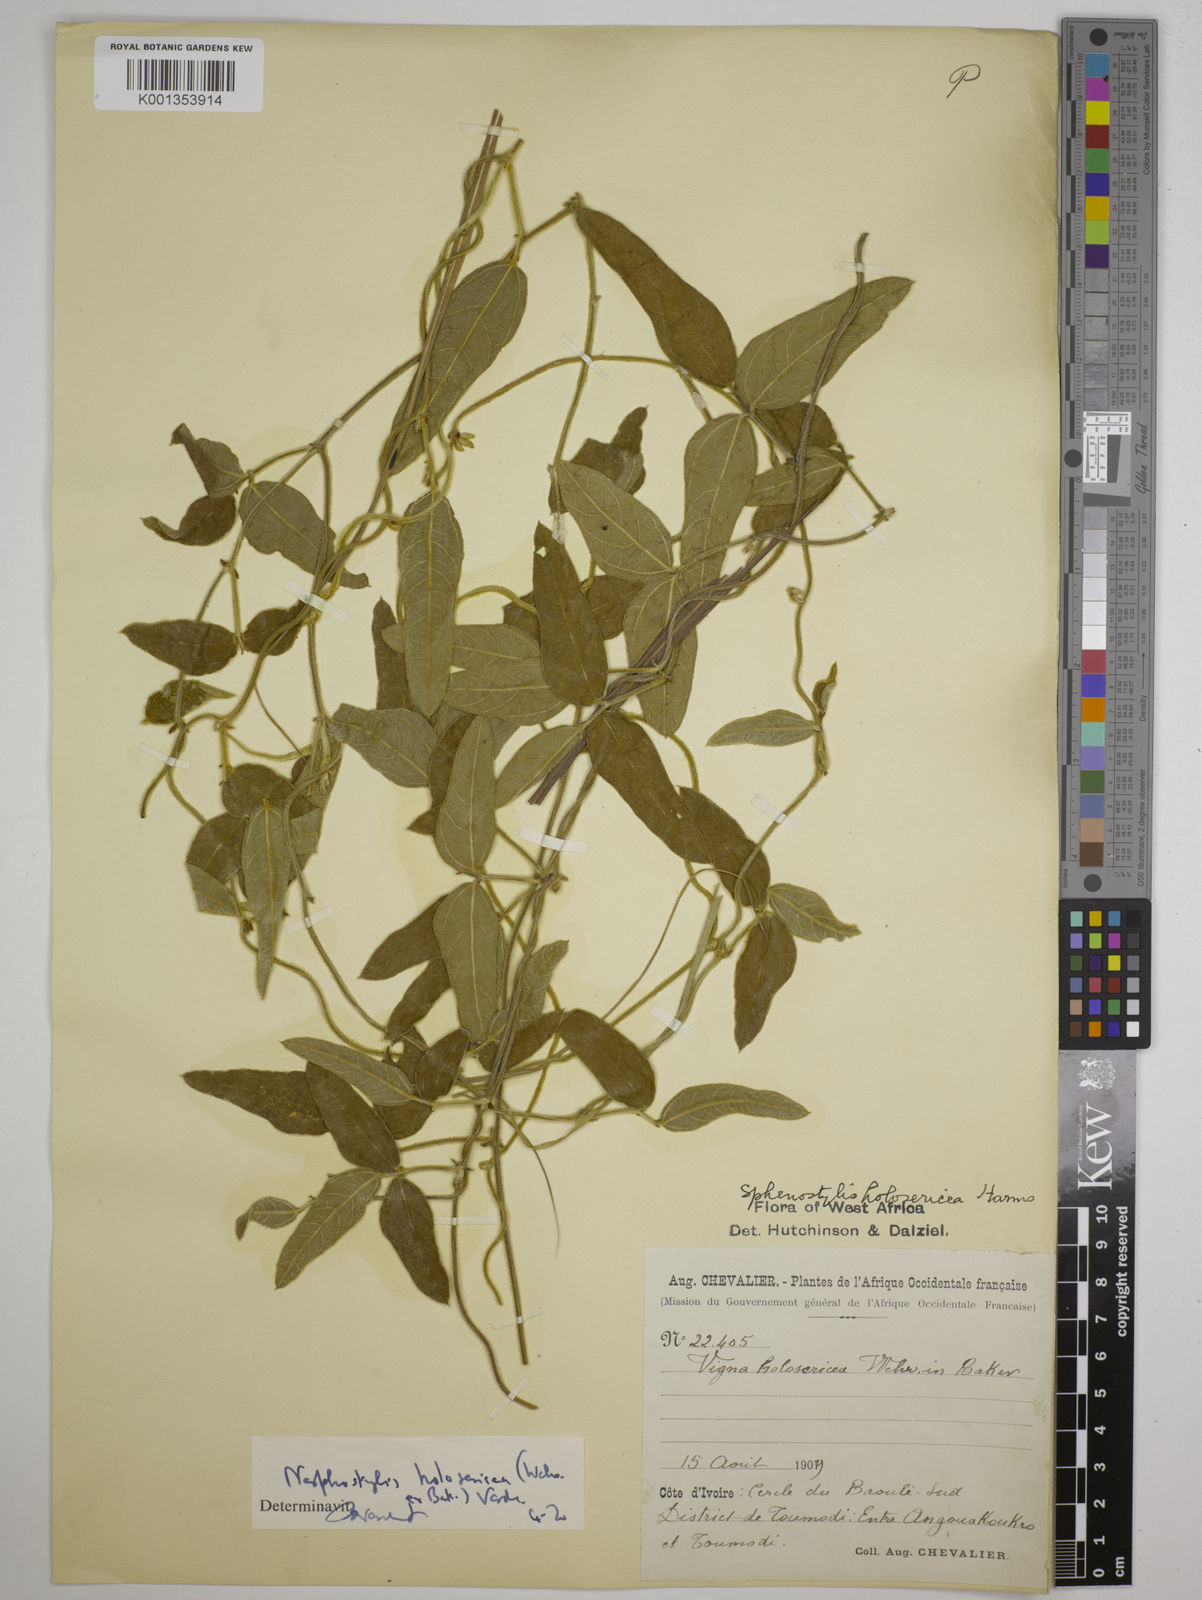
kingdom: Plantae
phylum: Tracheophyta
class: Magnoliopsida
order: Fabales
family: Fabaceae
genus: Nesphostylis
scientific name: Nesphostylis holosericea
